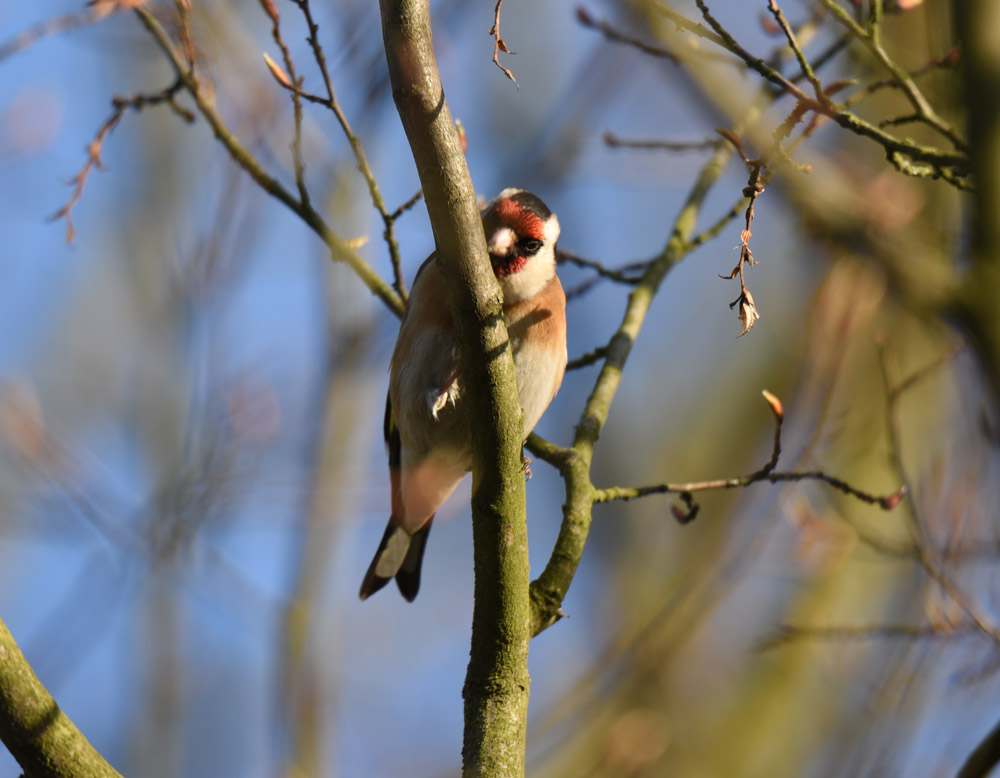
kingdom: Animalia
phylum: Chordata
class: Aves
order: Passeriformes
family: Fringillidae
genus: Carduelis
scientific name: Carduelis carduelis
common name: European goldfinch
